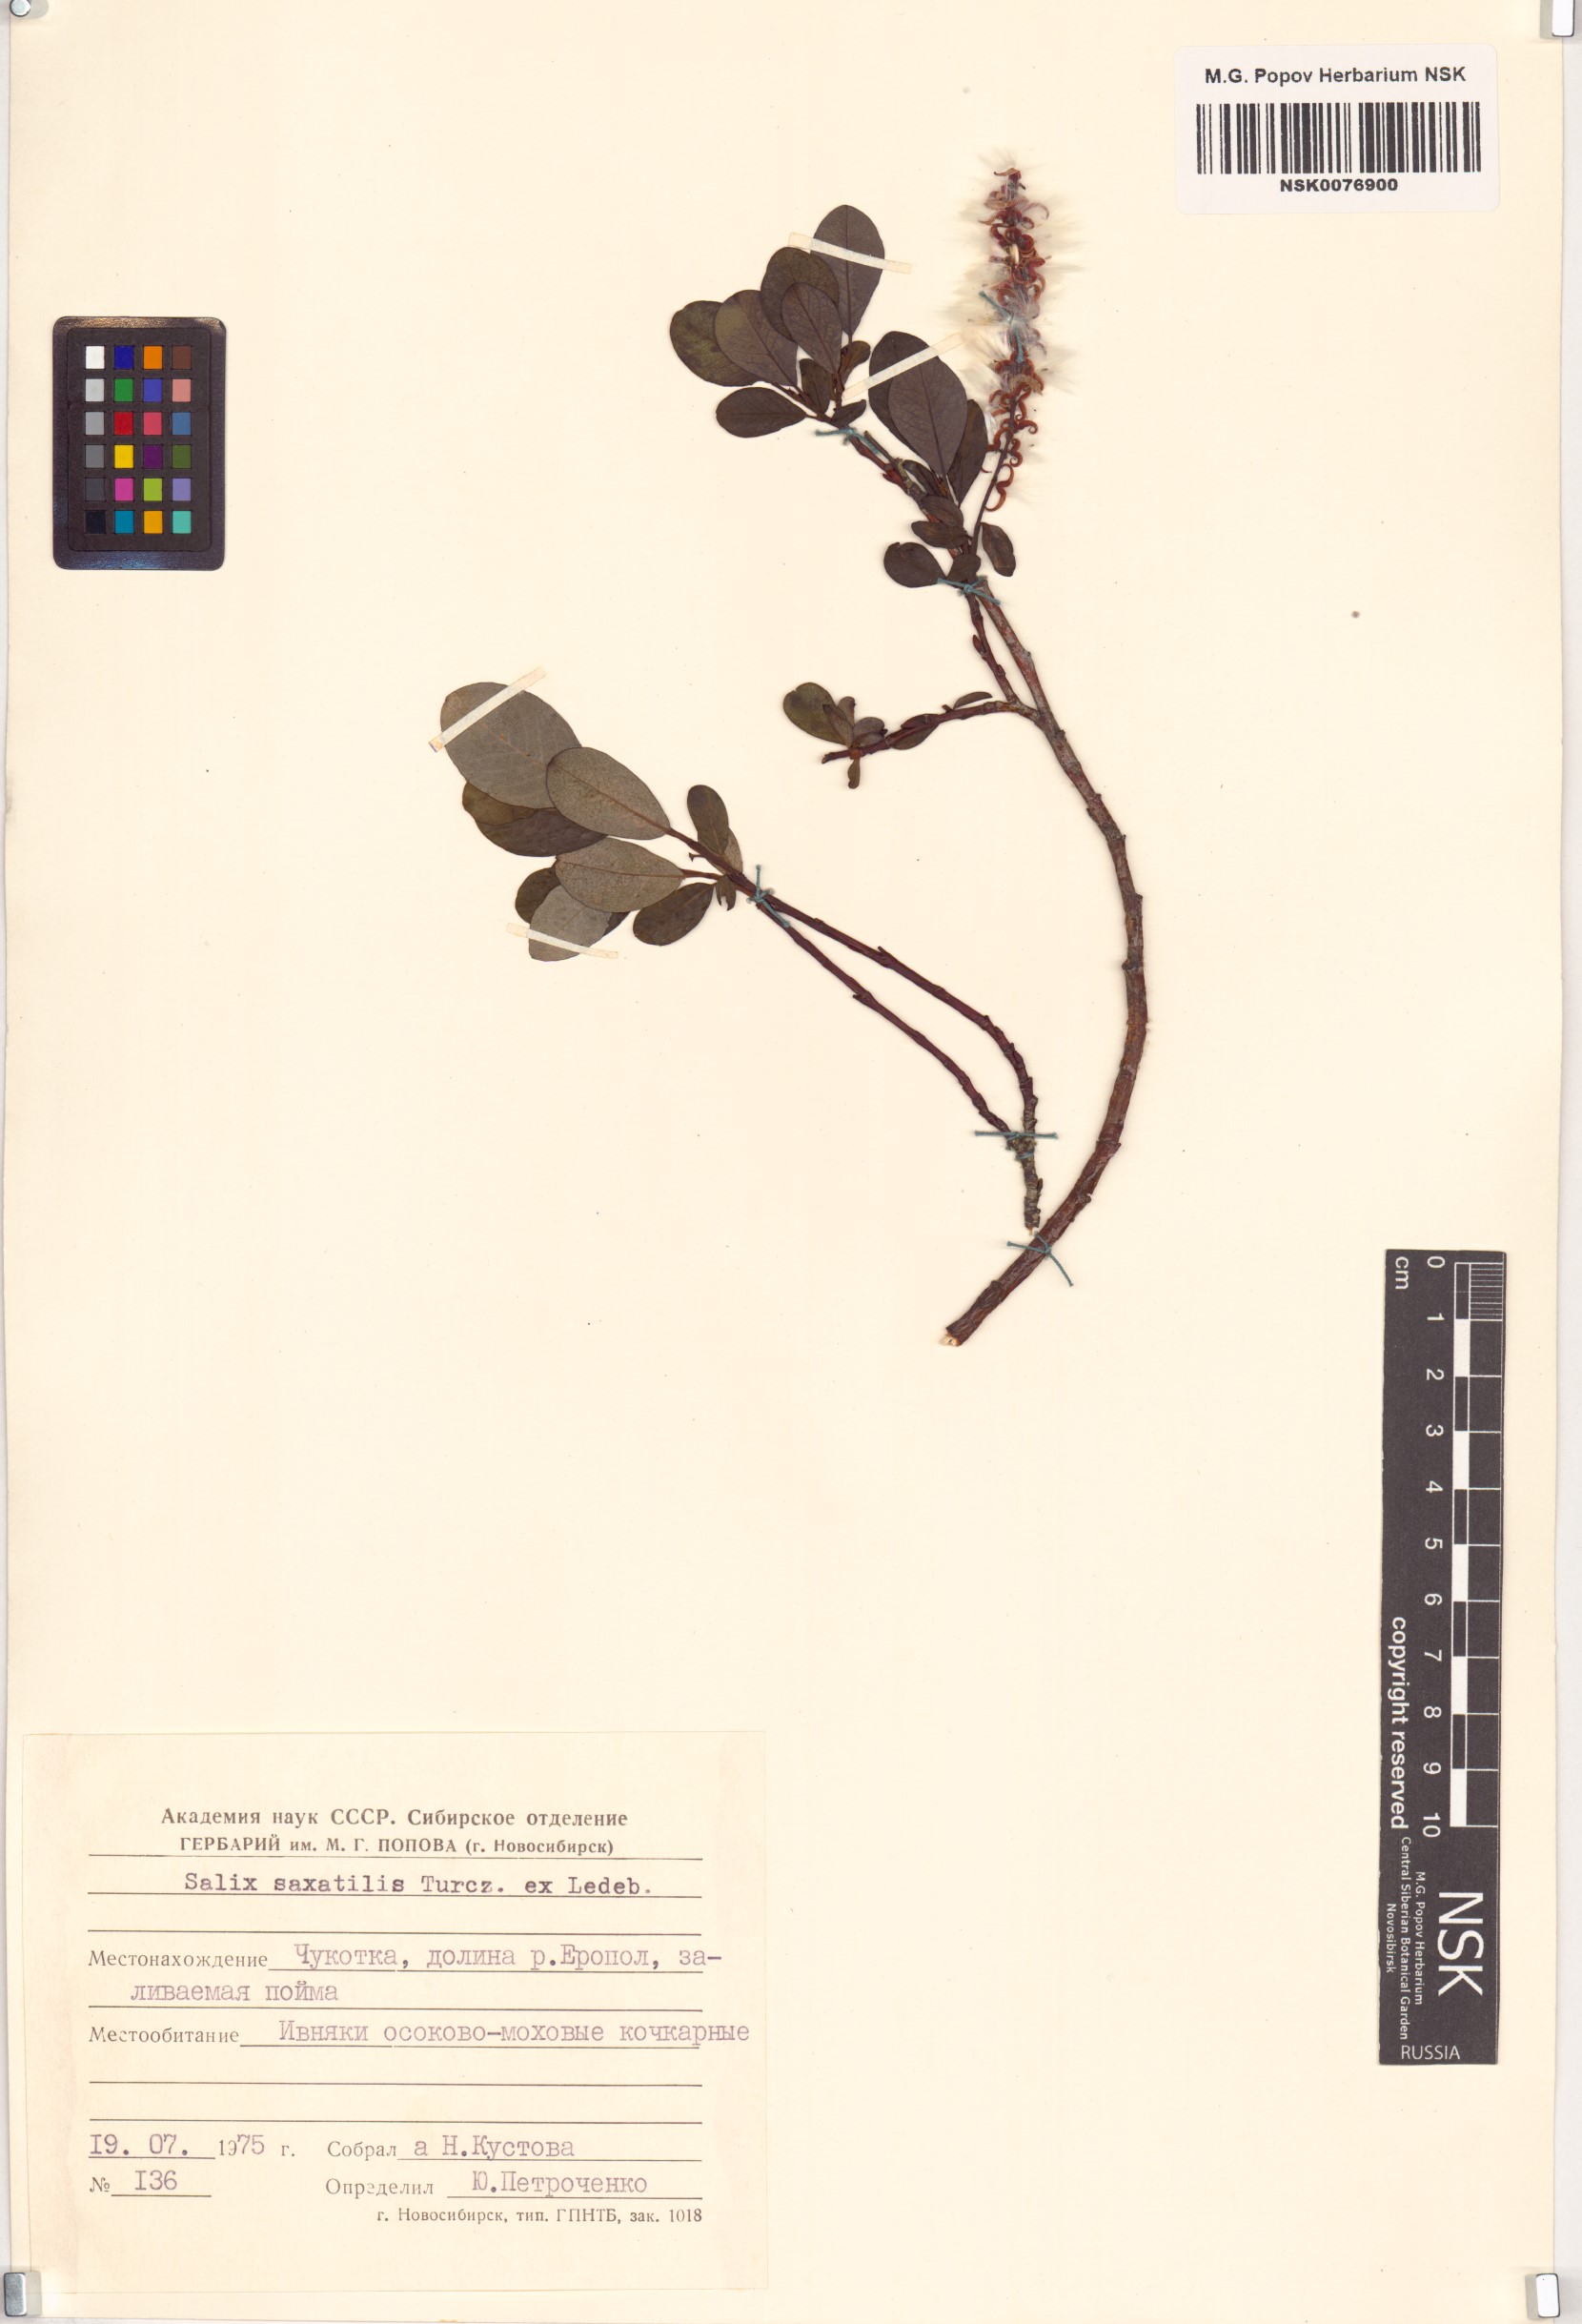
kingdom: Plantae
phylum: Tracheophyta
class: Magnoliopsida
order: Malpighiales
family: Salicaceae
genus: Salix
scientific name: Salix saxatilis
